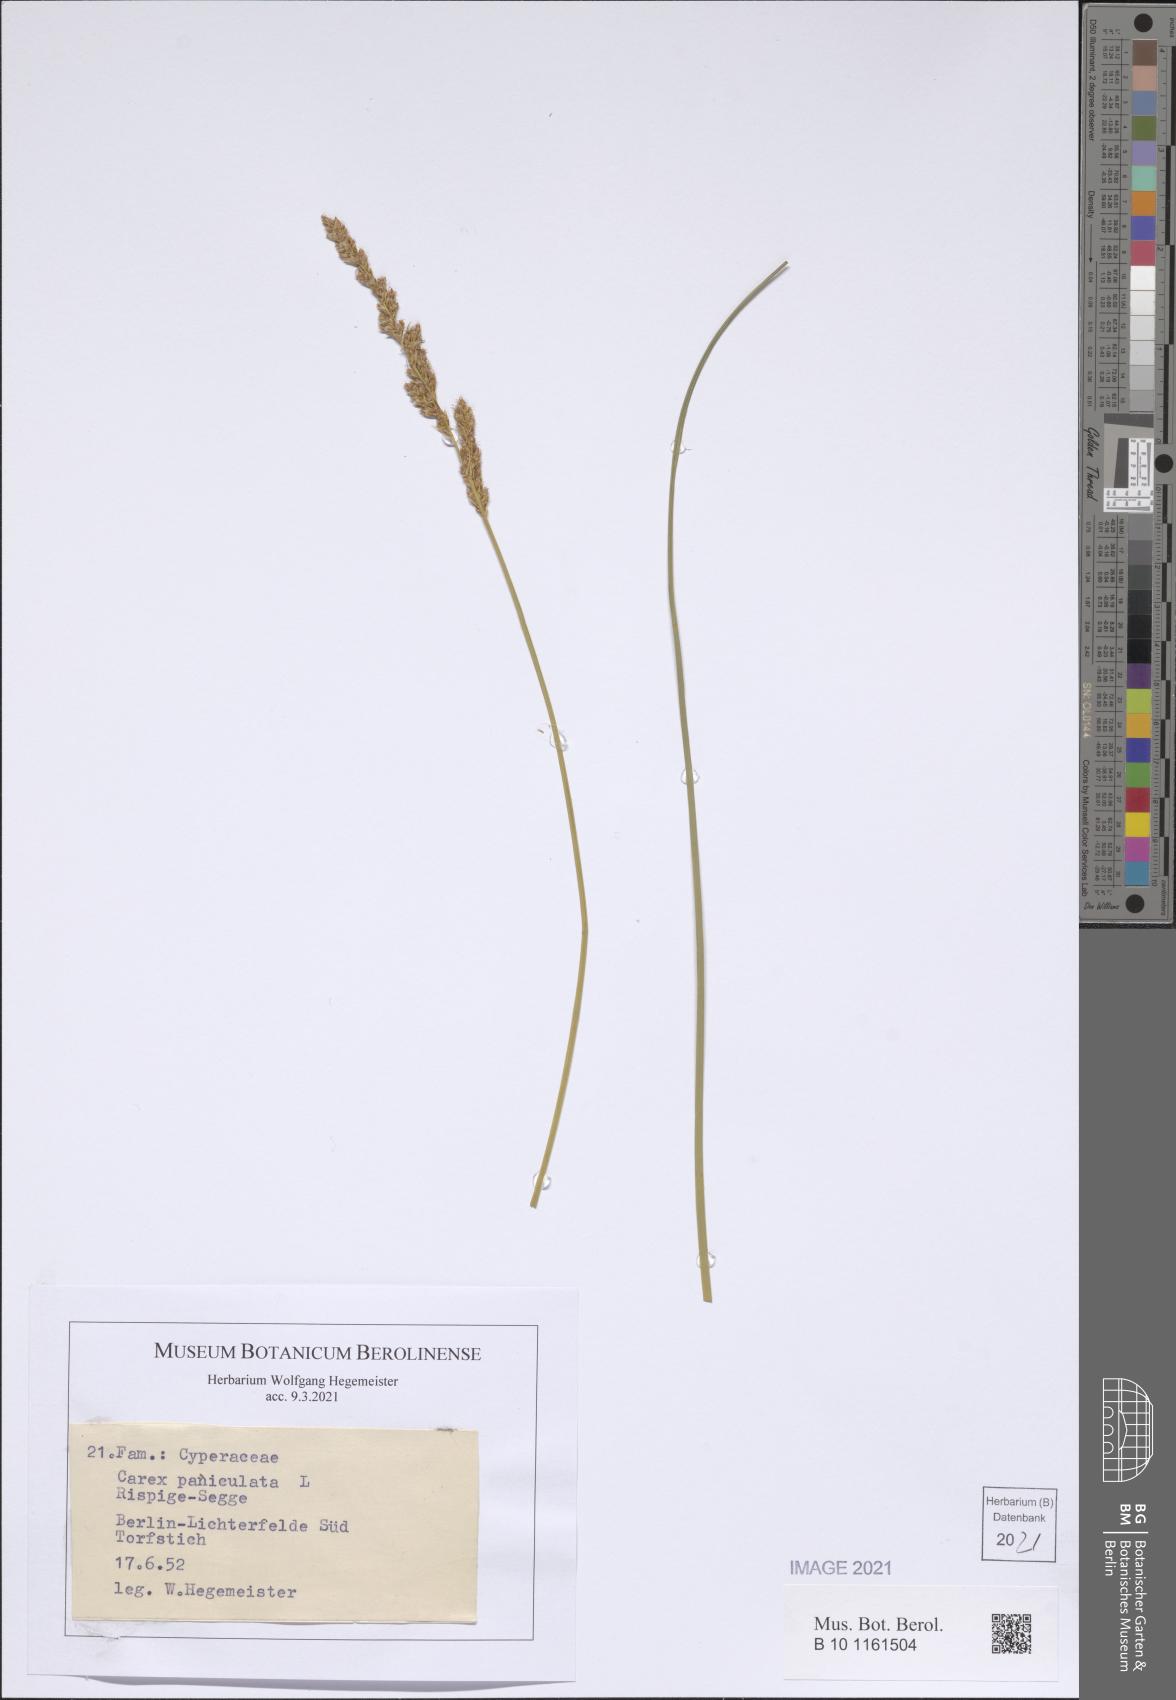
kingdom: Plantae
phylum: Tracheophyta
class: Liliopsida
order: Poales
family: Cyperaceae
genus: Carex
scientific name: Carex paniculata
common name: Greater tussock-sedge
